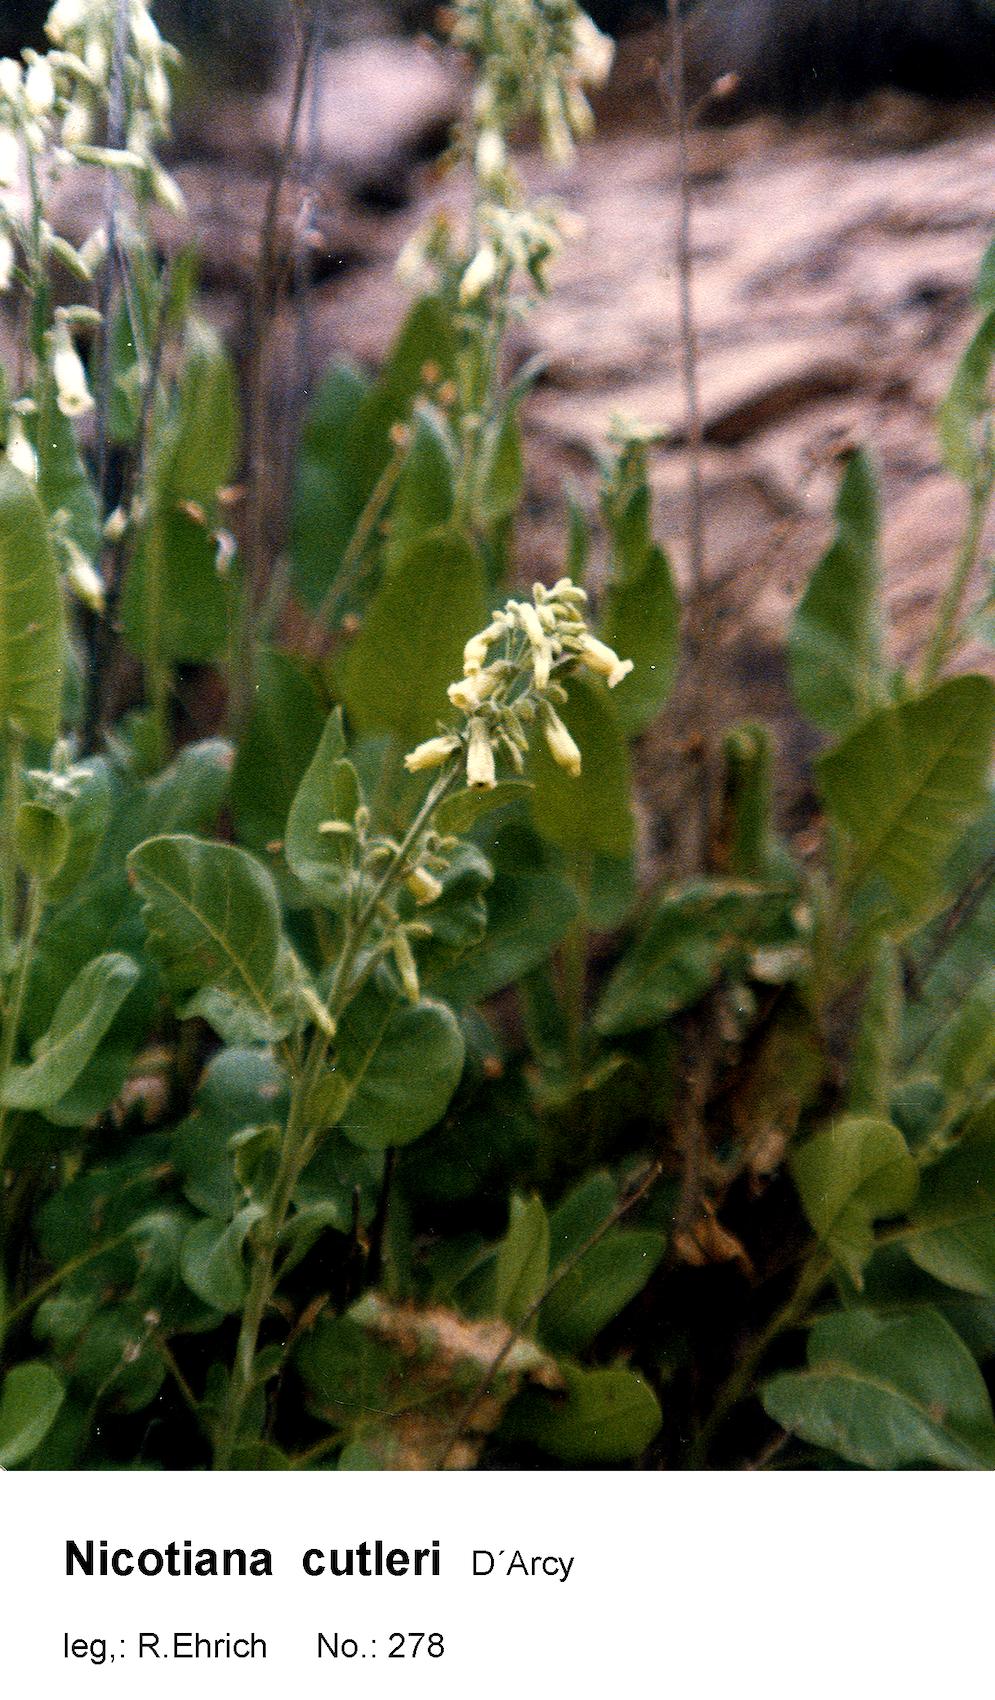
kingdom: Plantae
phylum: Tracheophyta
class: Magnoliopsida
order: Solanales
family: Solanaceae
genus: Nicotiana
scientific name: Nicotiana cutleri
